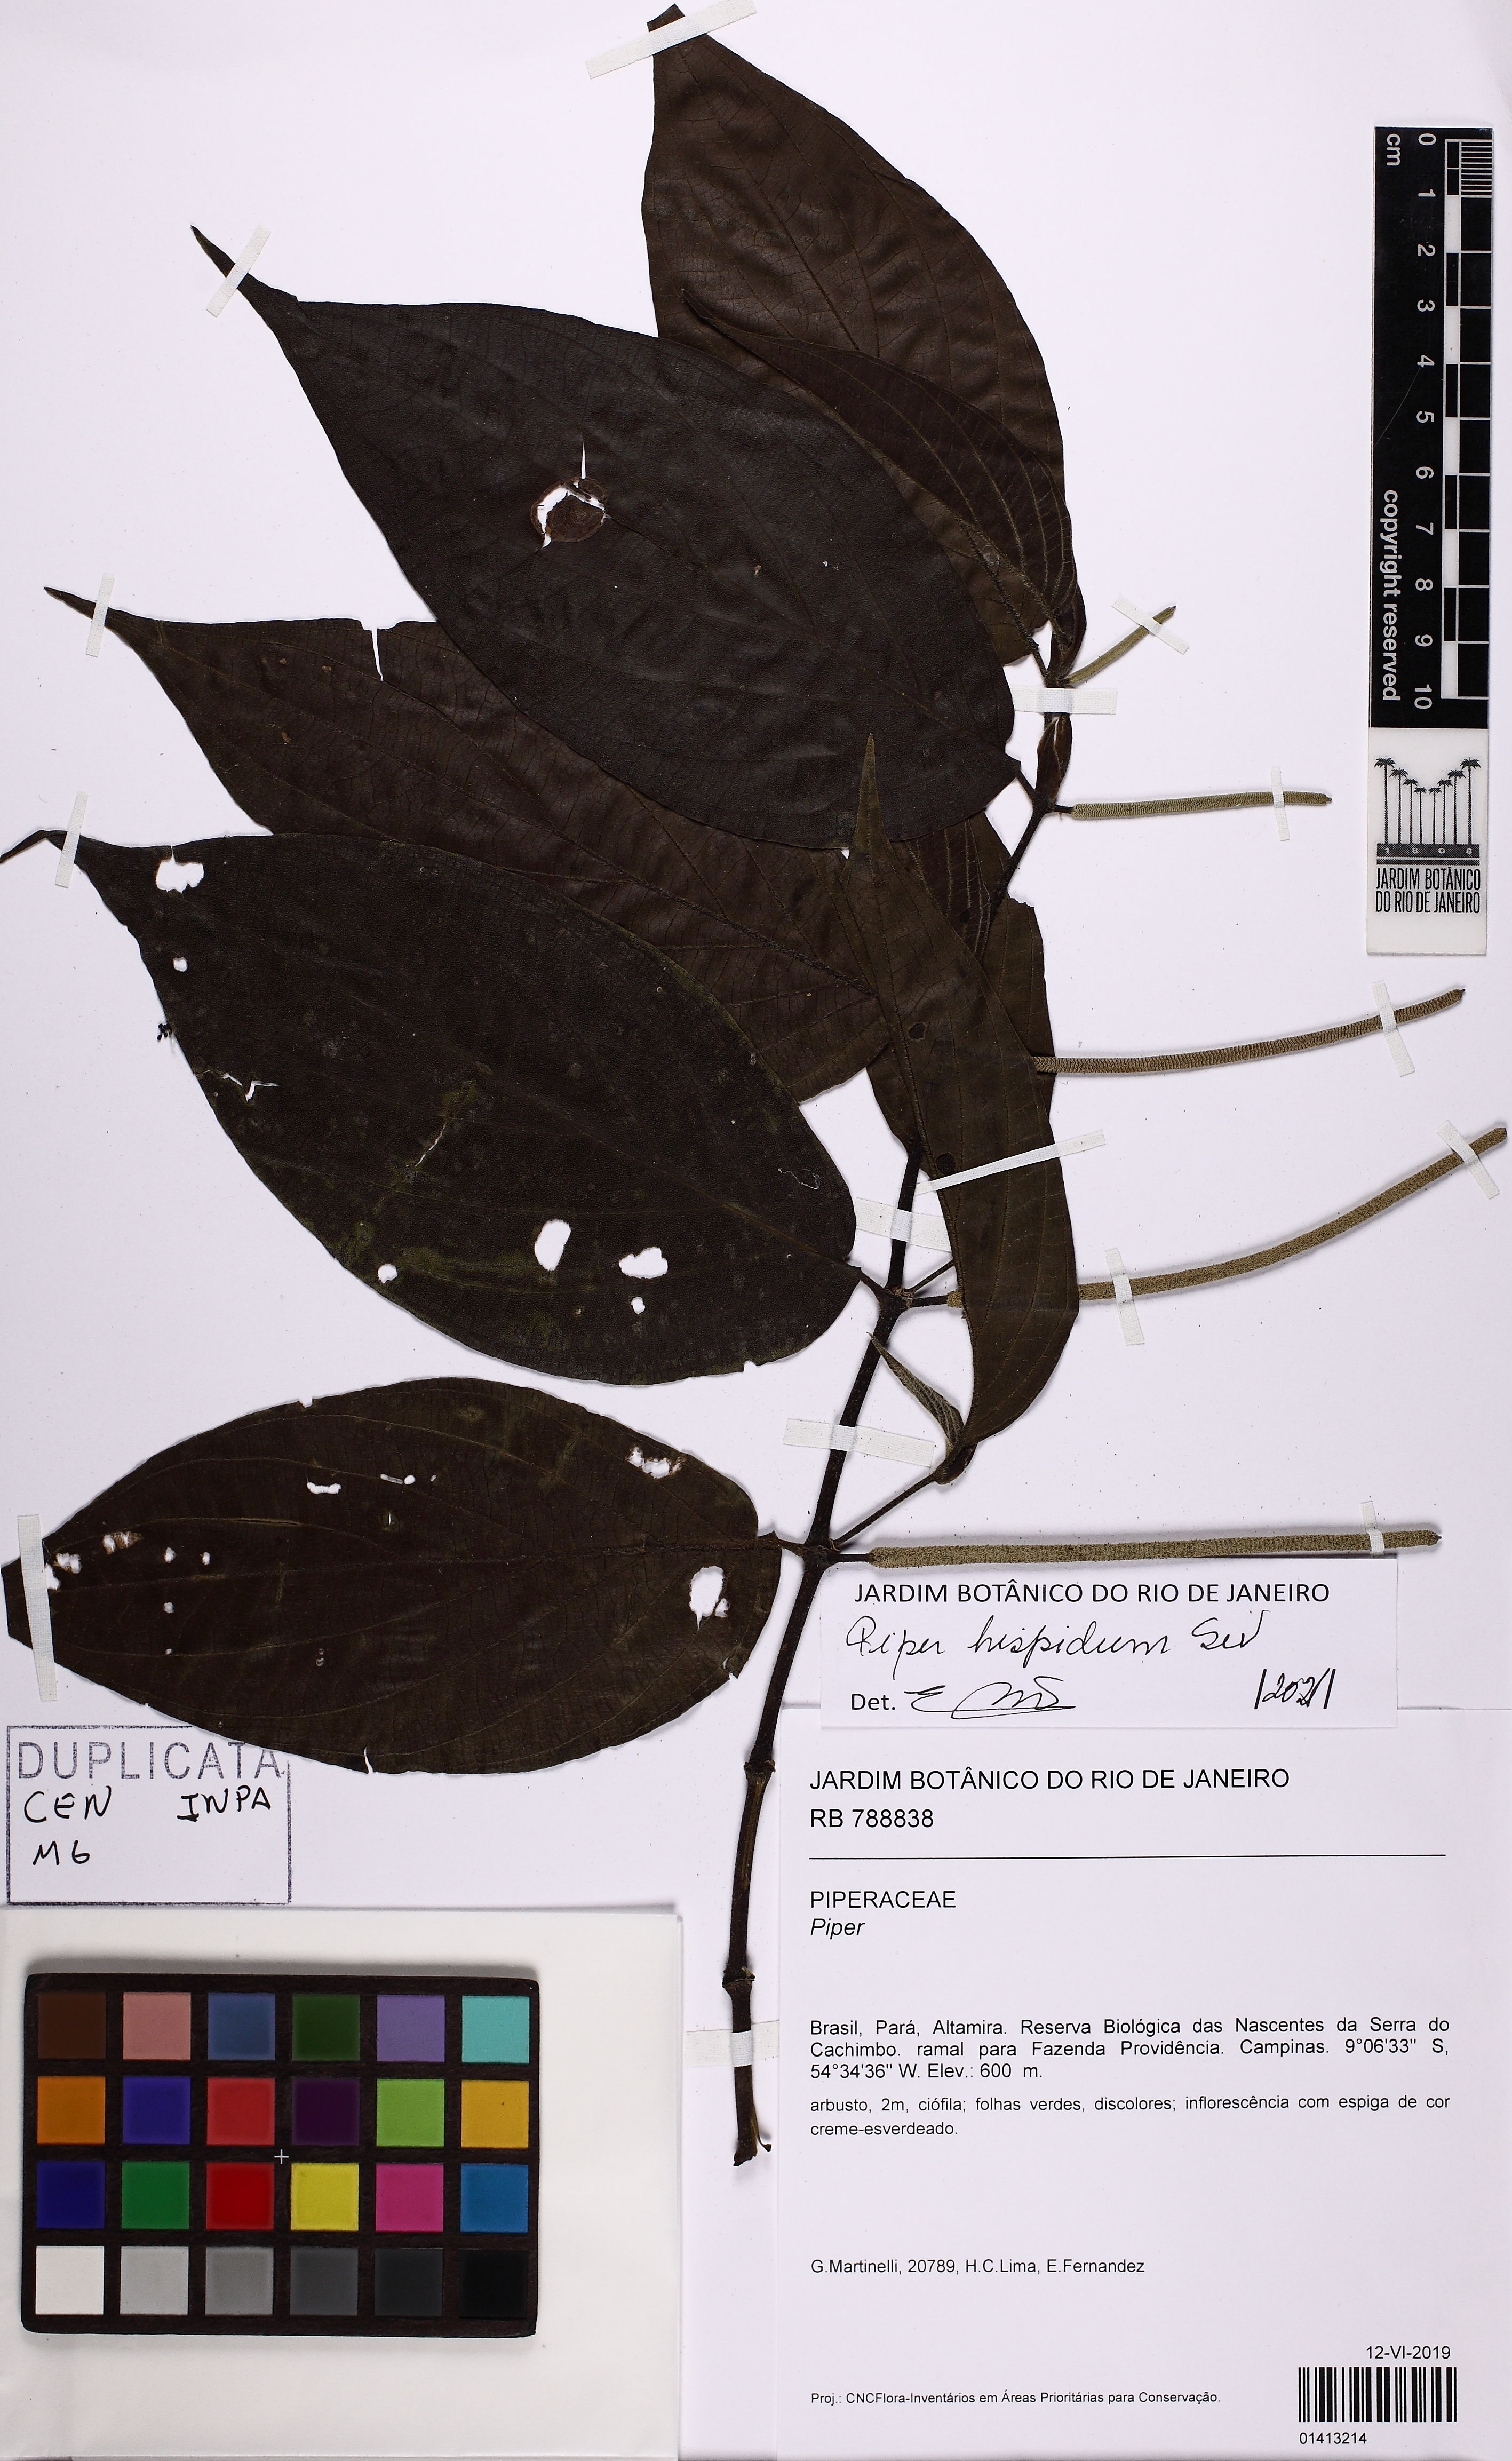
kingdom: Plantae
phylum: Tracheophyta
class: Magnoliopsida
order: Piperales
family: Piperaceae
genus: Piper
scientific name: Piper hispidum
